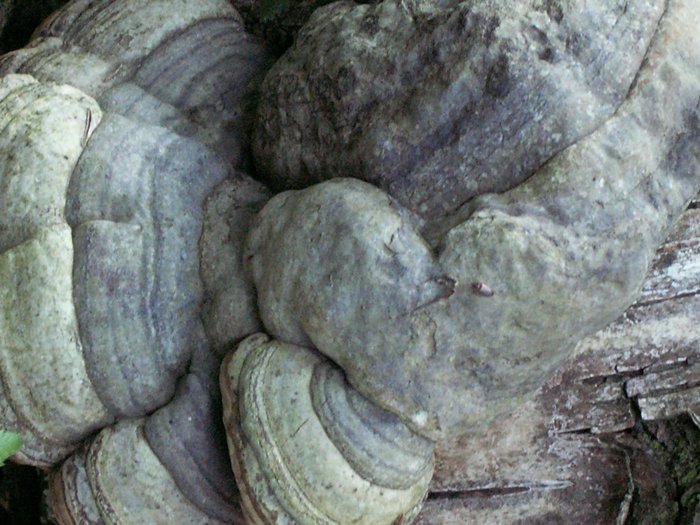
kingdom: Fungi
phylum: Basidiomycota
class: Agaricomycetes
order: Polyporales
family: Polyporaceae
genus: Fomes
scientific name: Fomes fomentarius
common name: tøndersvamp
